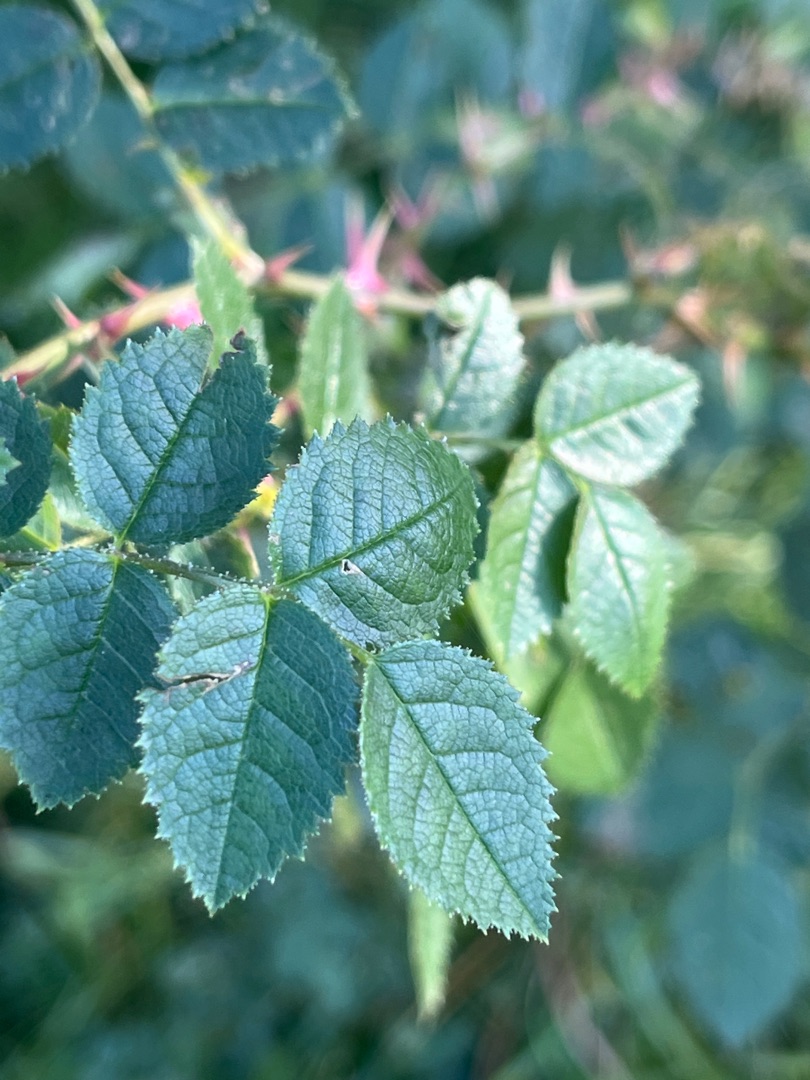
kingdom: Plantae
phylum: Tracheophyta
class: Magnoliopsida
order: Rosales
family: Rosaceae
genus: Rosa
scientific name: Rosa rubiginosa
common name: Æble-rose
